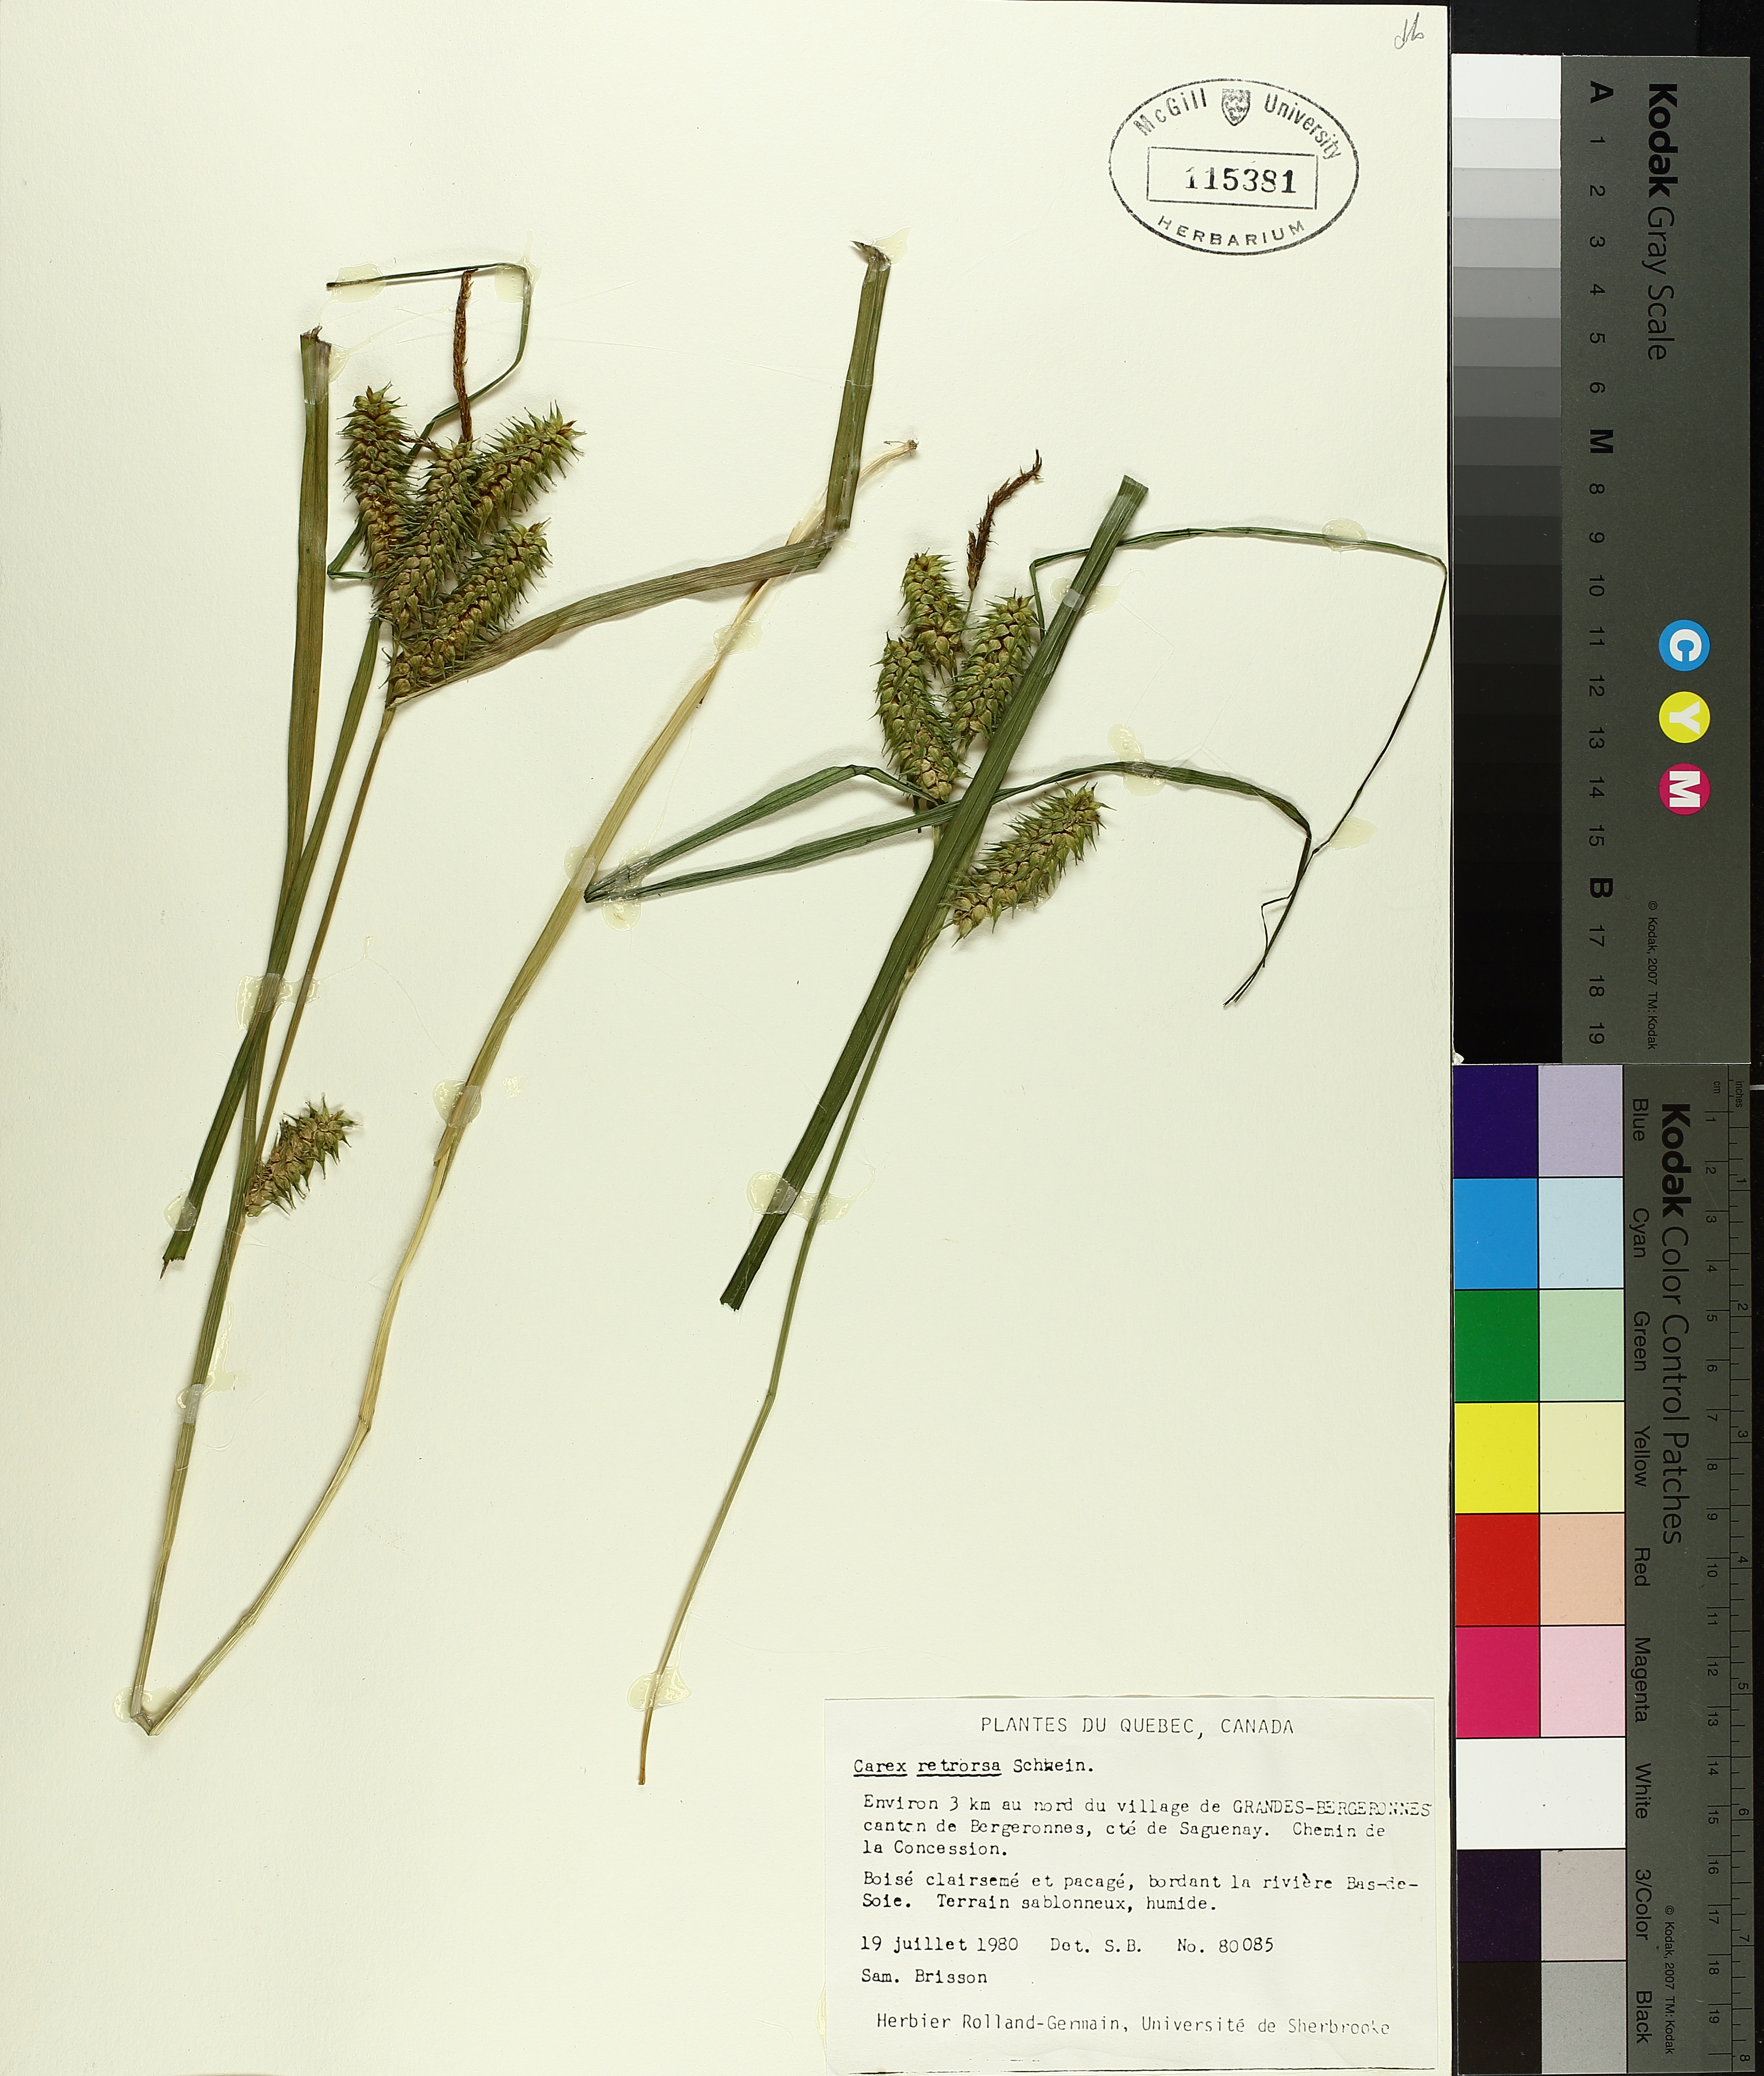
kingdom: Plantae
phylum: Tracheophyta
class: Liliopsida
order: Poales
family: Cyperaceae
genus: Carex
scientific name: Carex retrorsa
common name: Knot-sheath sedge
